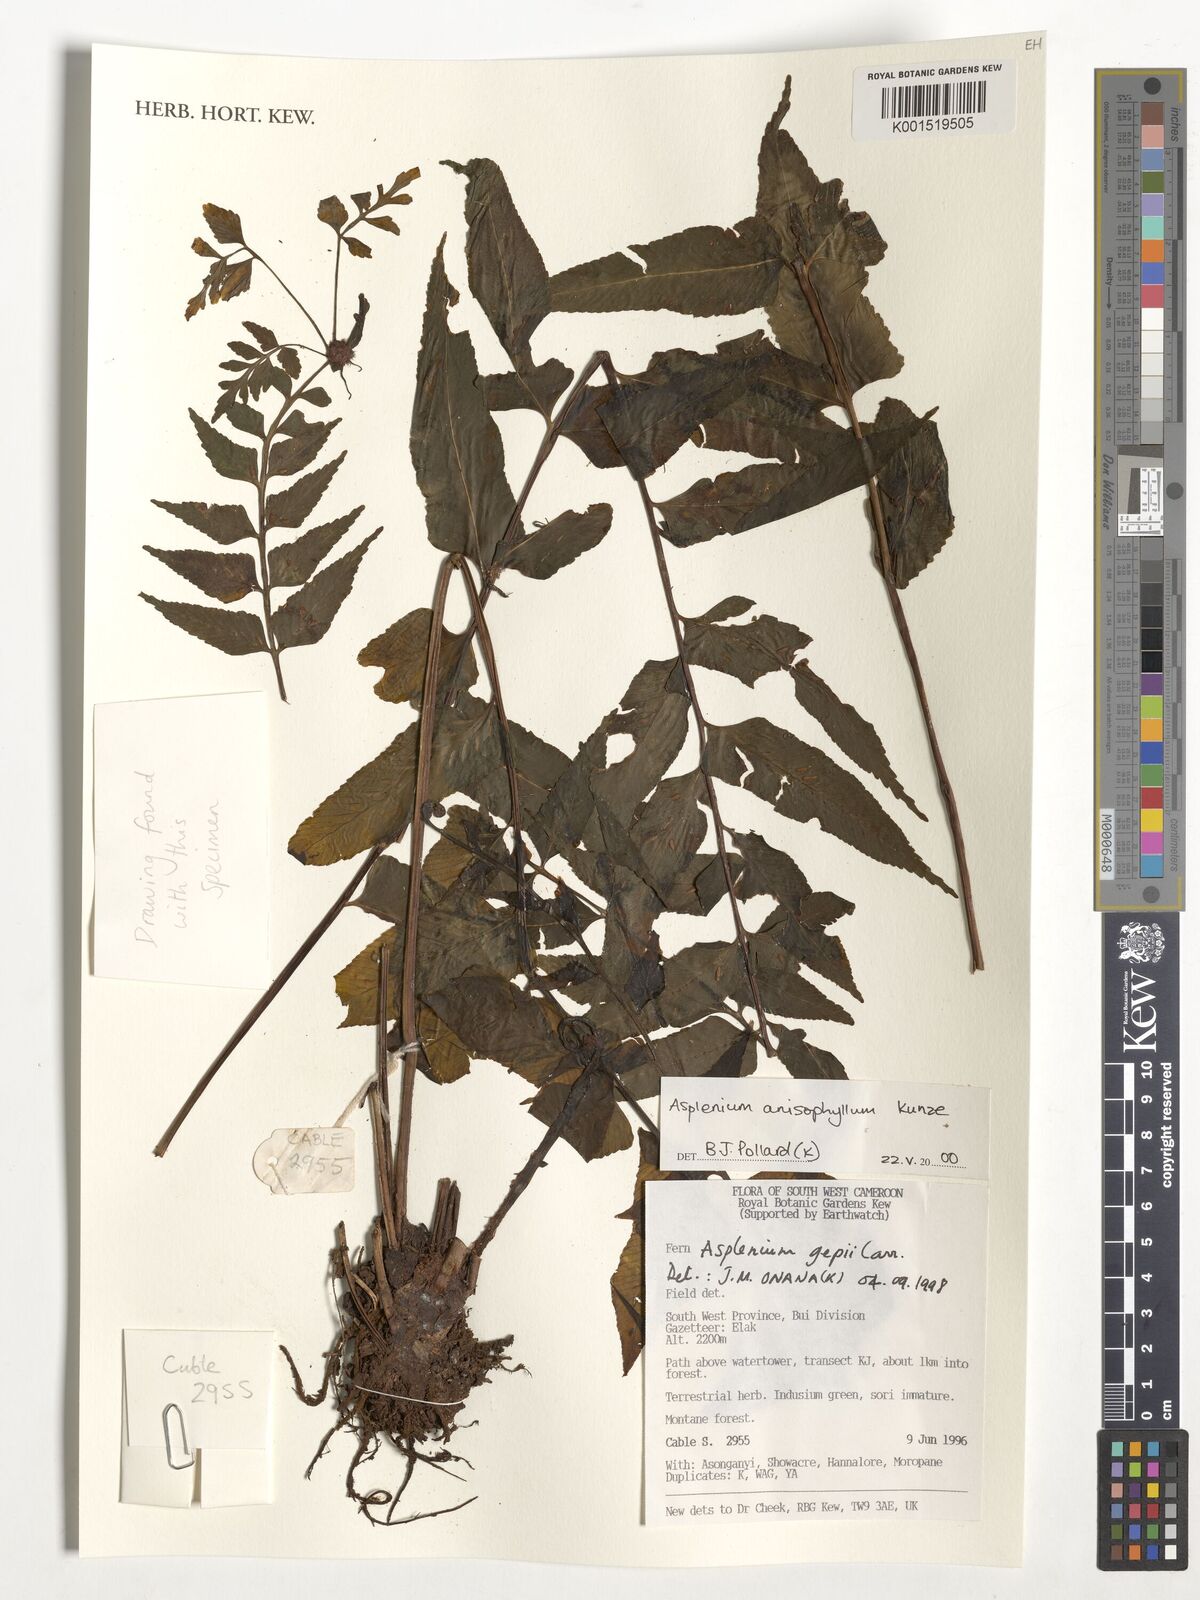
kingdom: Plantae
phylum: Tracheophyta
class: Polypodiopsida
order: Polypodiales
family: Aspleniaceae
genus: Asplenium
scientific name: Asplenium anisophyllum
